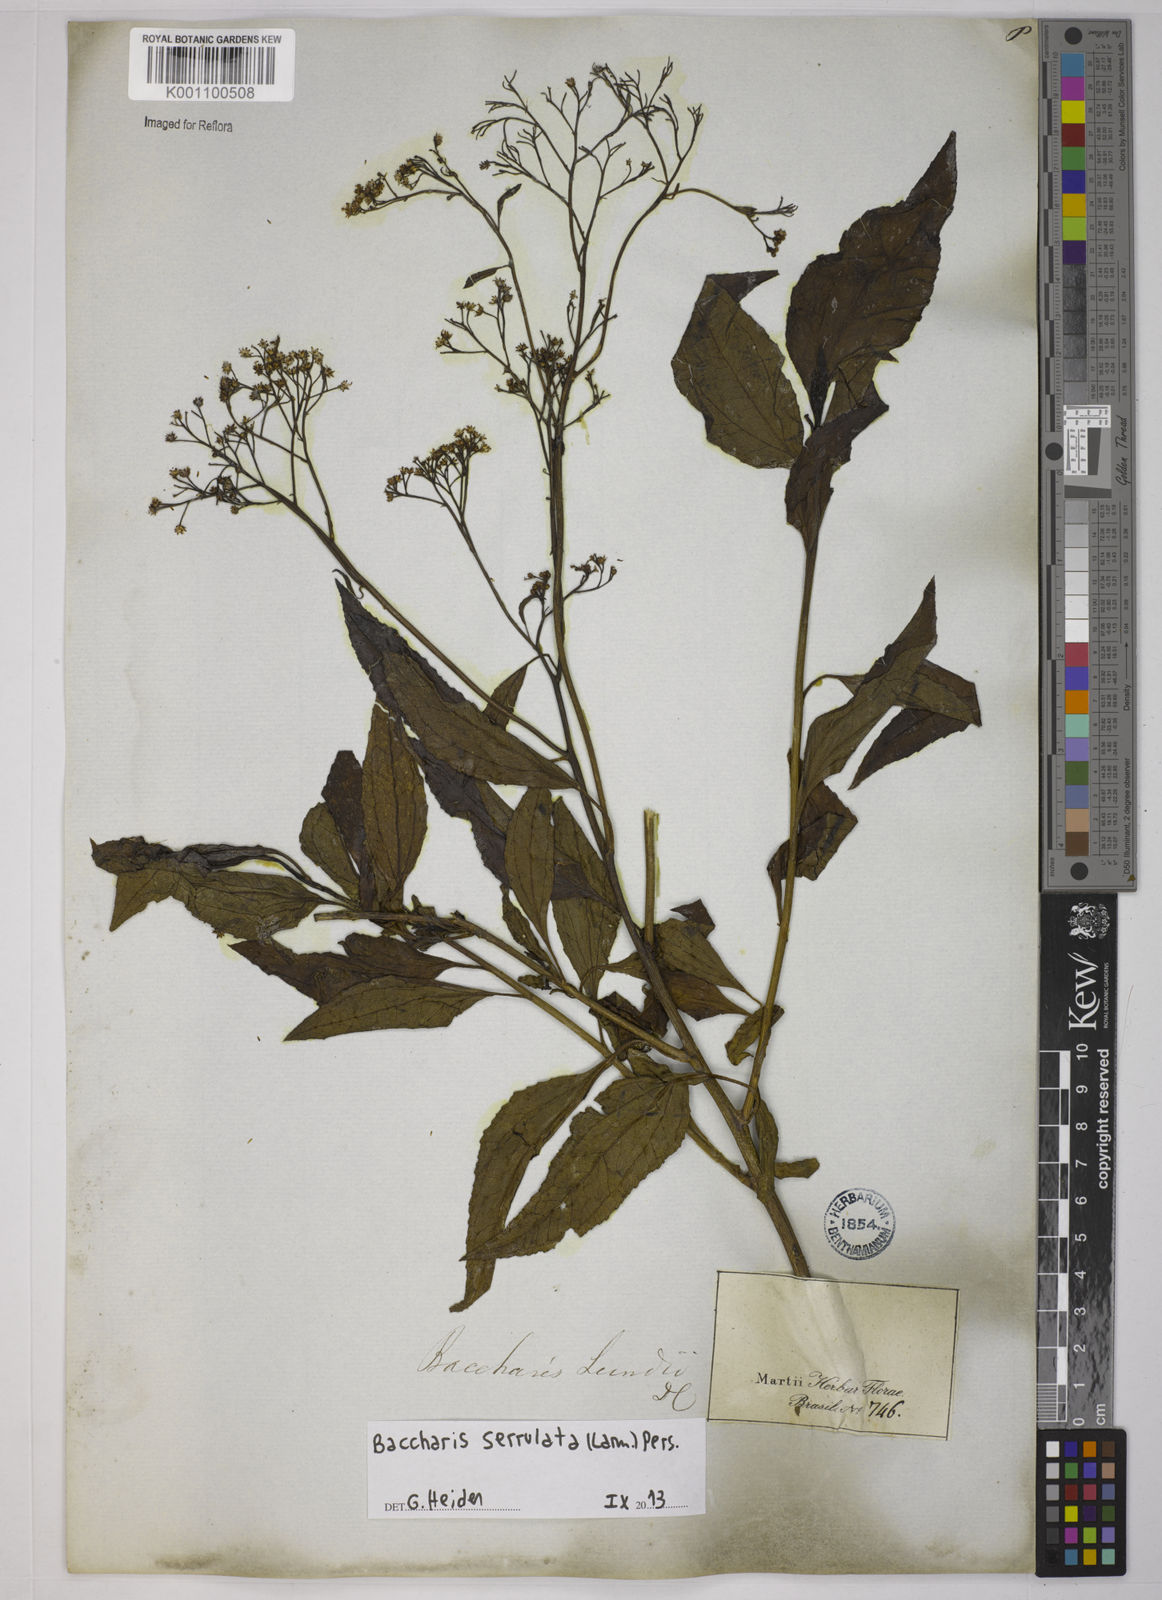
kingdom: Plantae
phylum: Tracheophyta
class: Magnoliopsida
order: Asterales
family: Asteraceae
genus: Baccharis
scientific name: Baccharis serrulata
